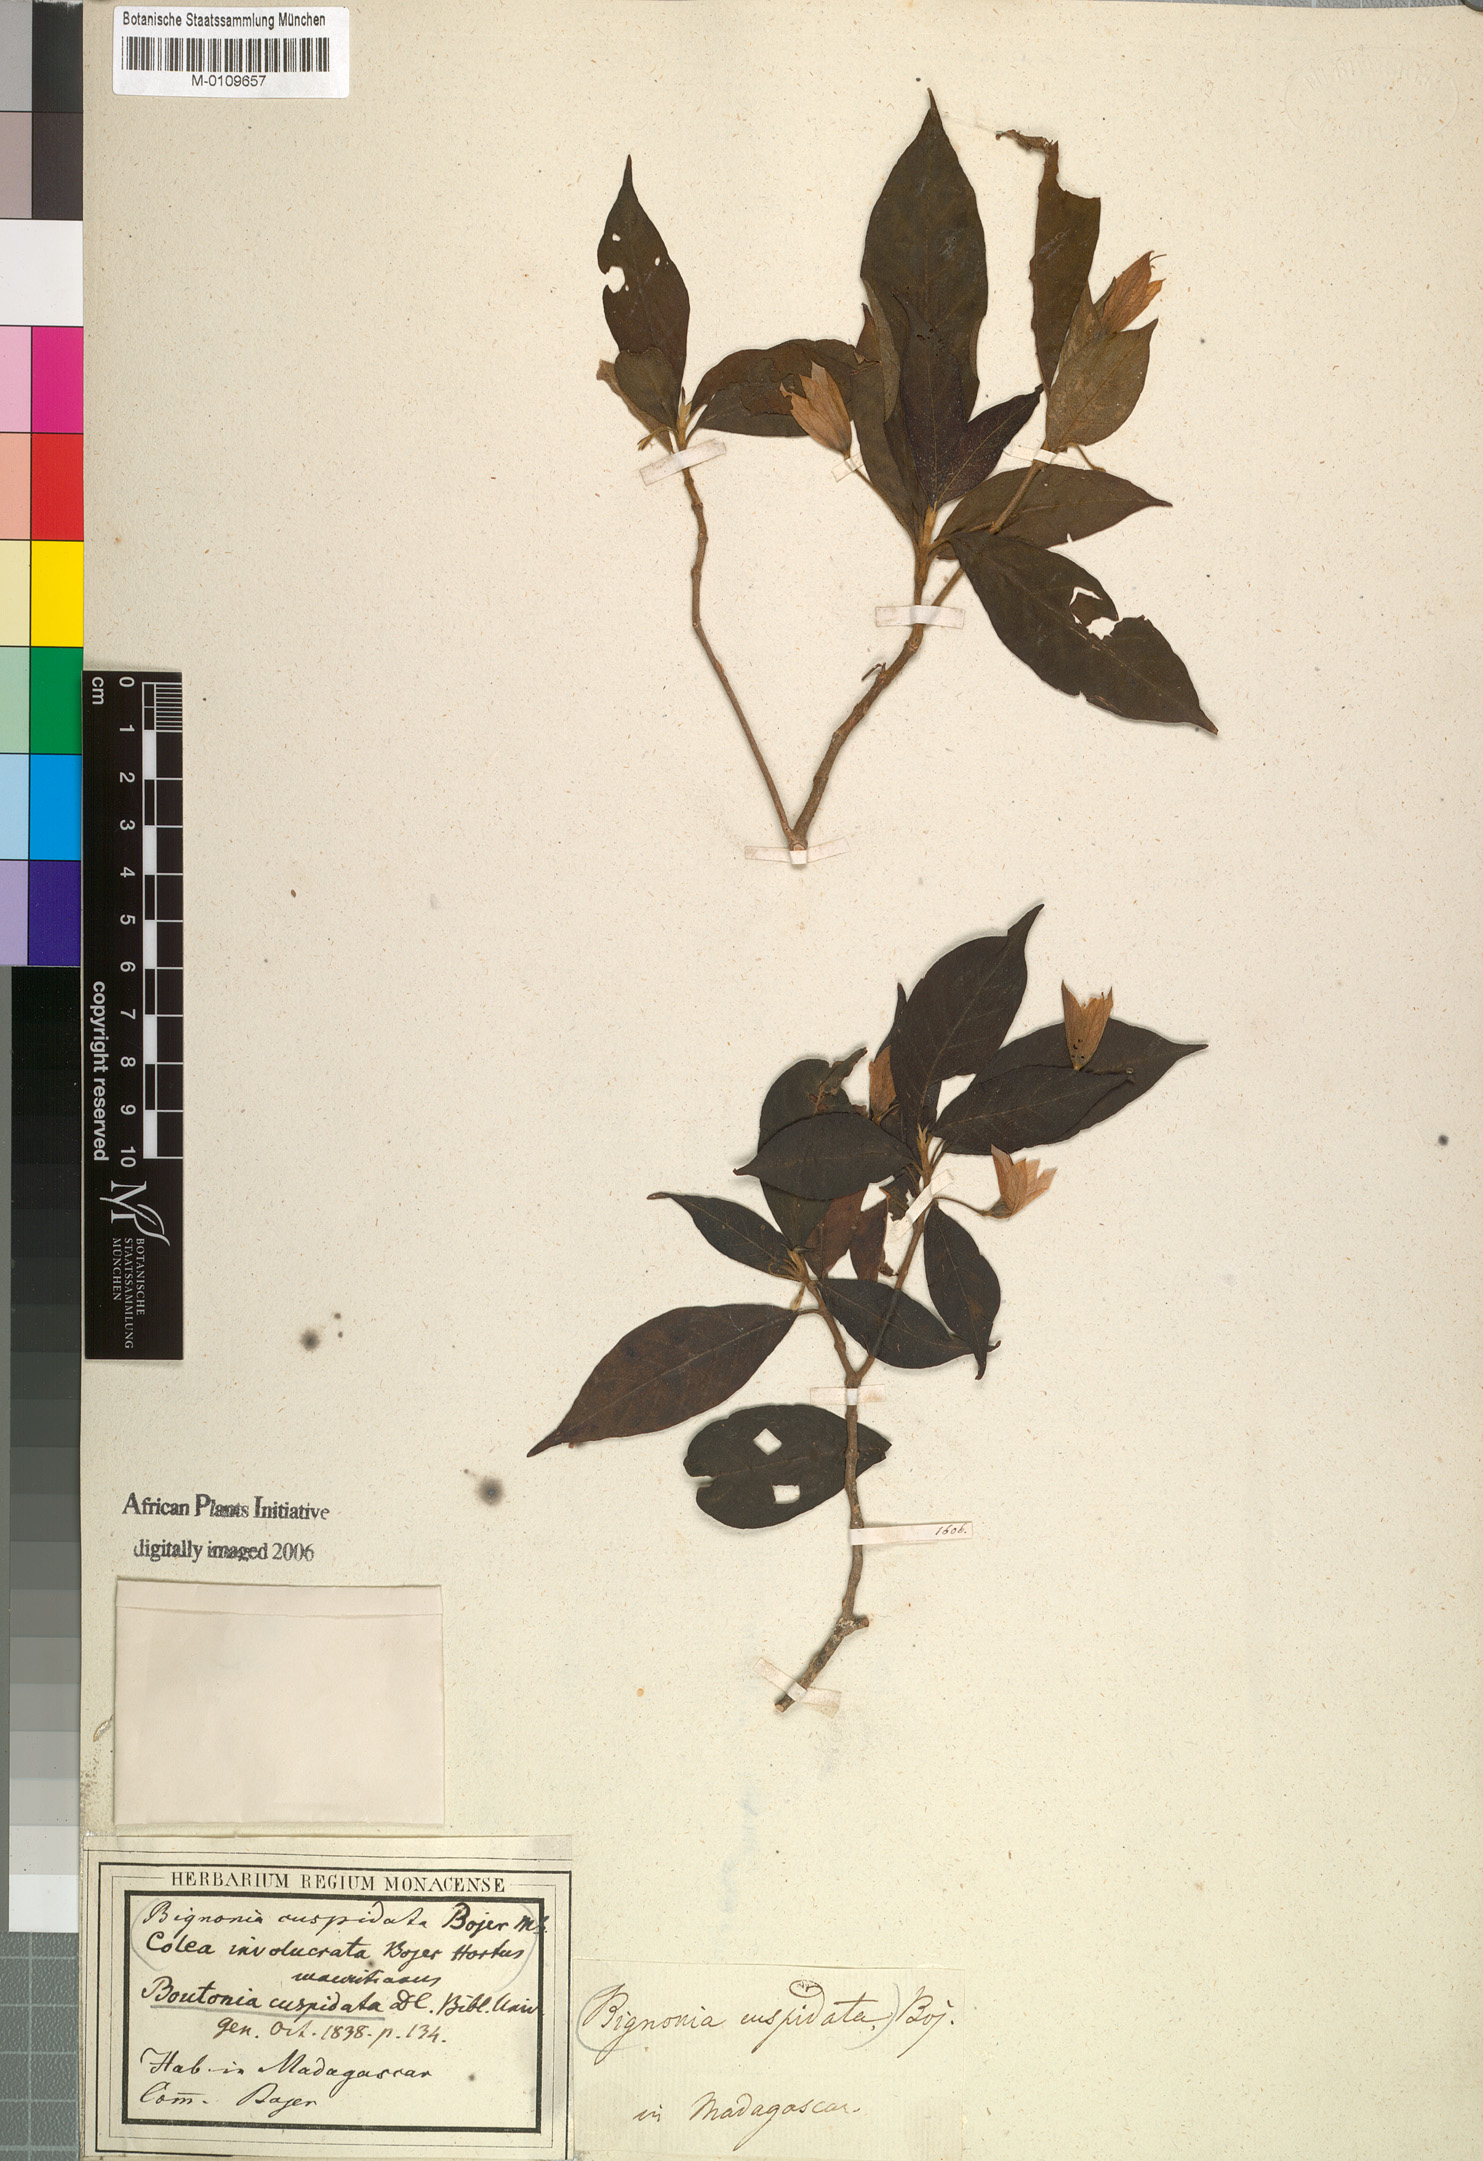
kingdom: Plantae
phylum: Tracheophyta
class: Magnoliopsida
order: Lamiales
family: Acanthaceae
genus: Boutonia
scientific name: Boutonia cuspidata
